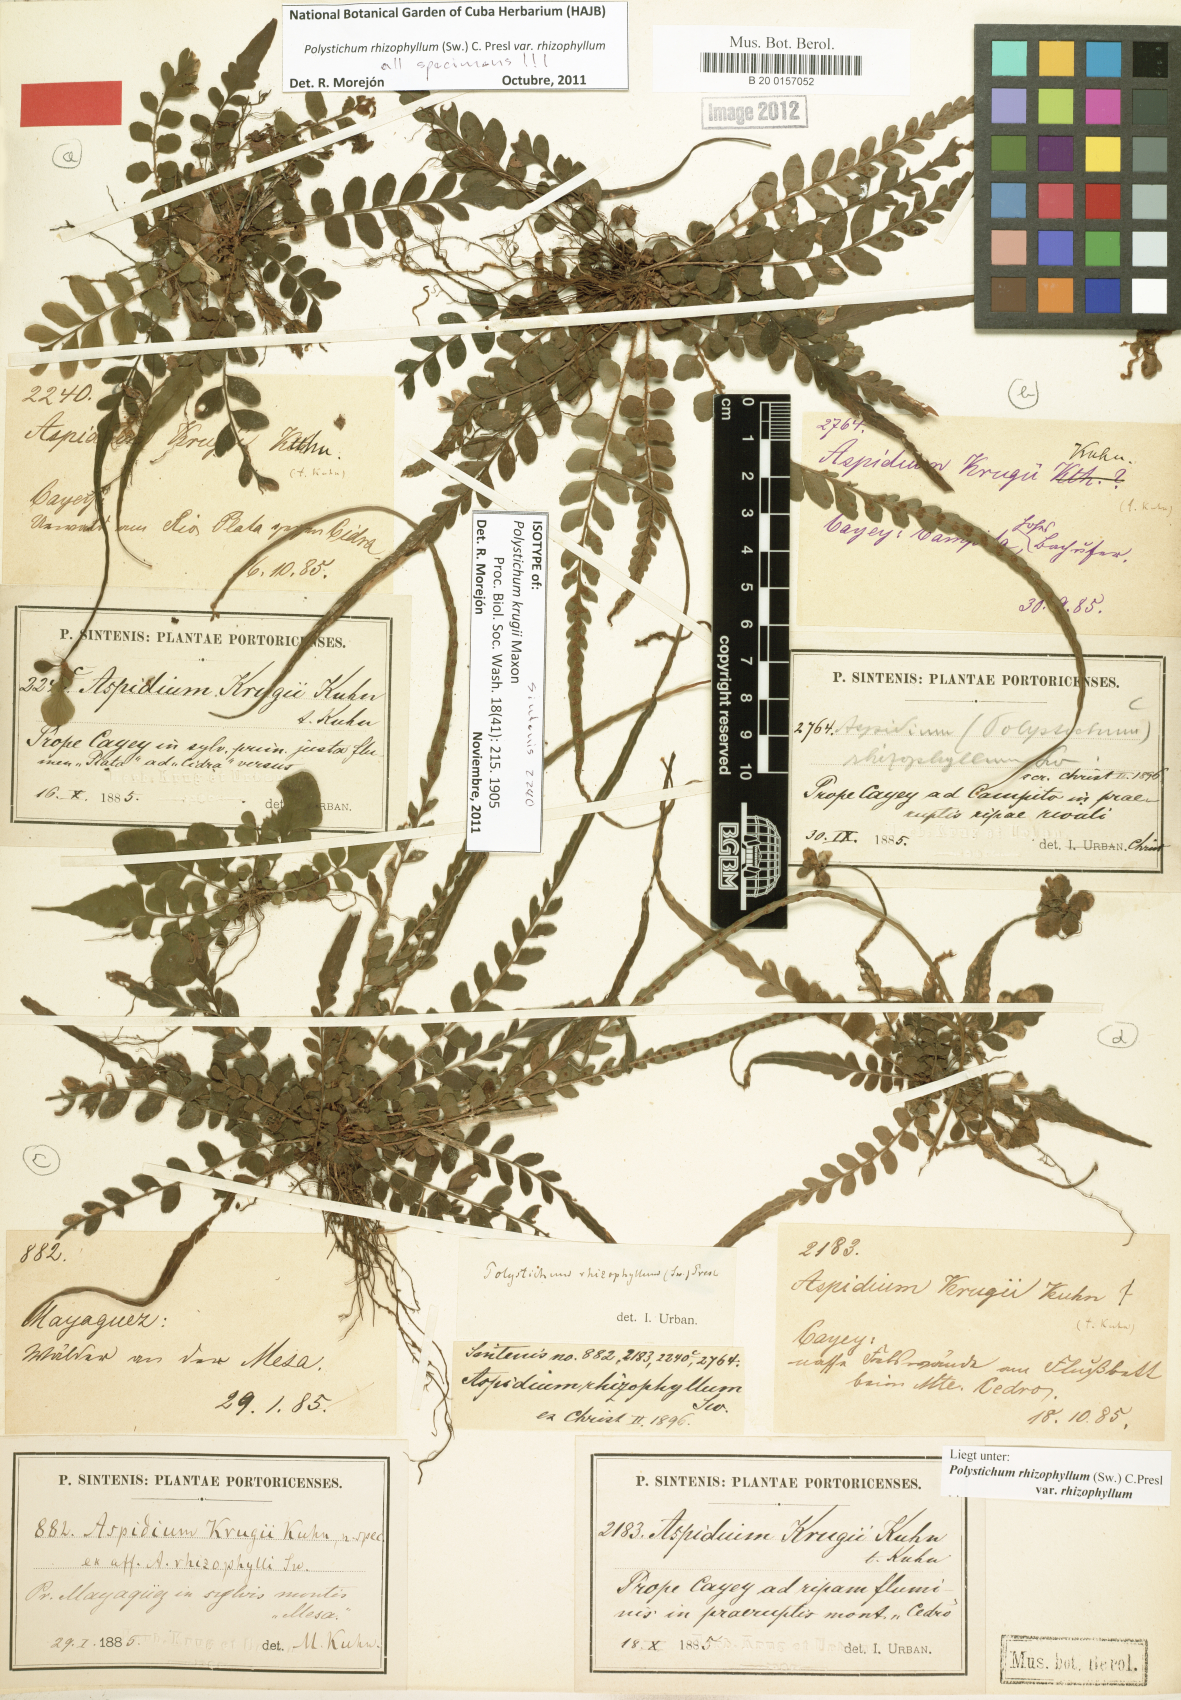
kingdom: Plantae
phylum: Tracheophyta
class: Polypodiopsida
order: Polypodiales
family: Dryopteridaceae
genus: Polystichum
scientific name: Polystichum rhizophyllum
